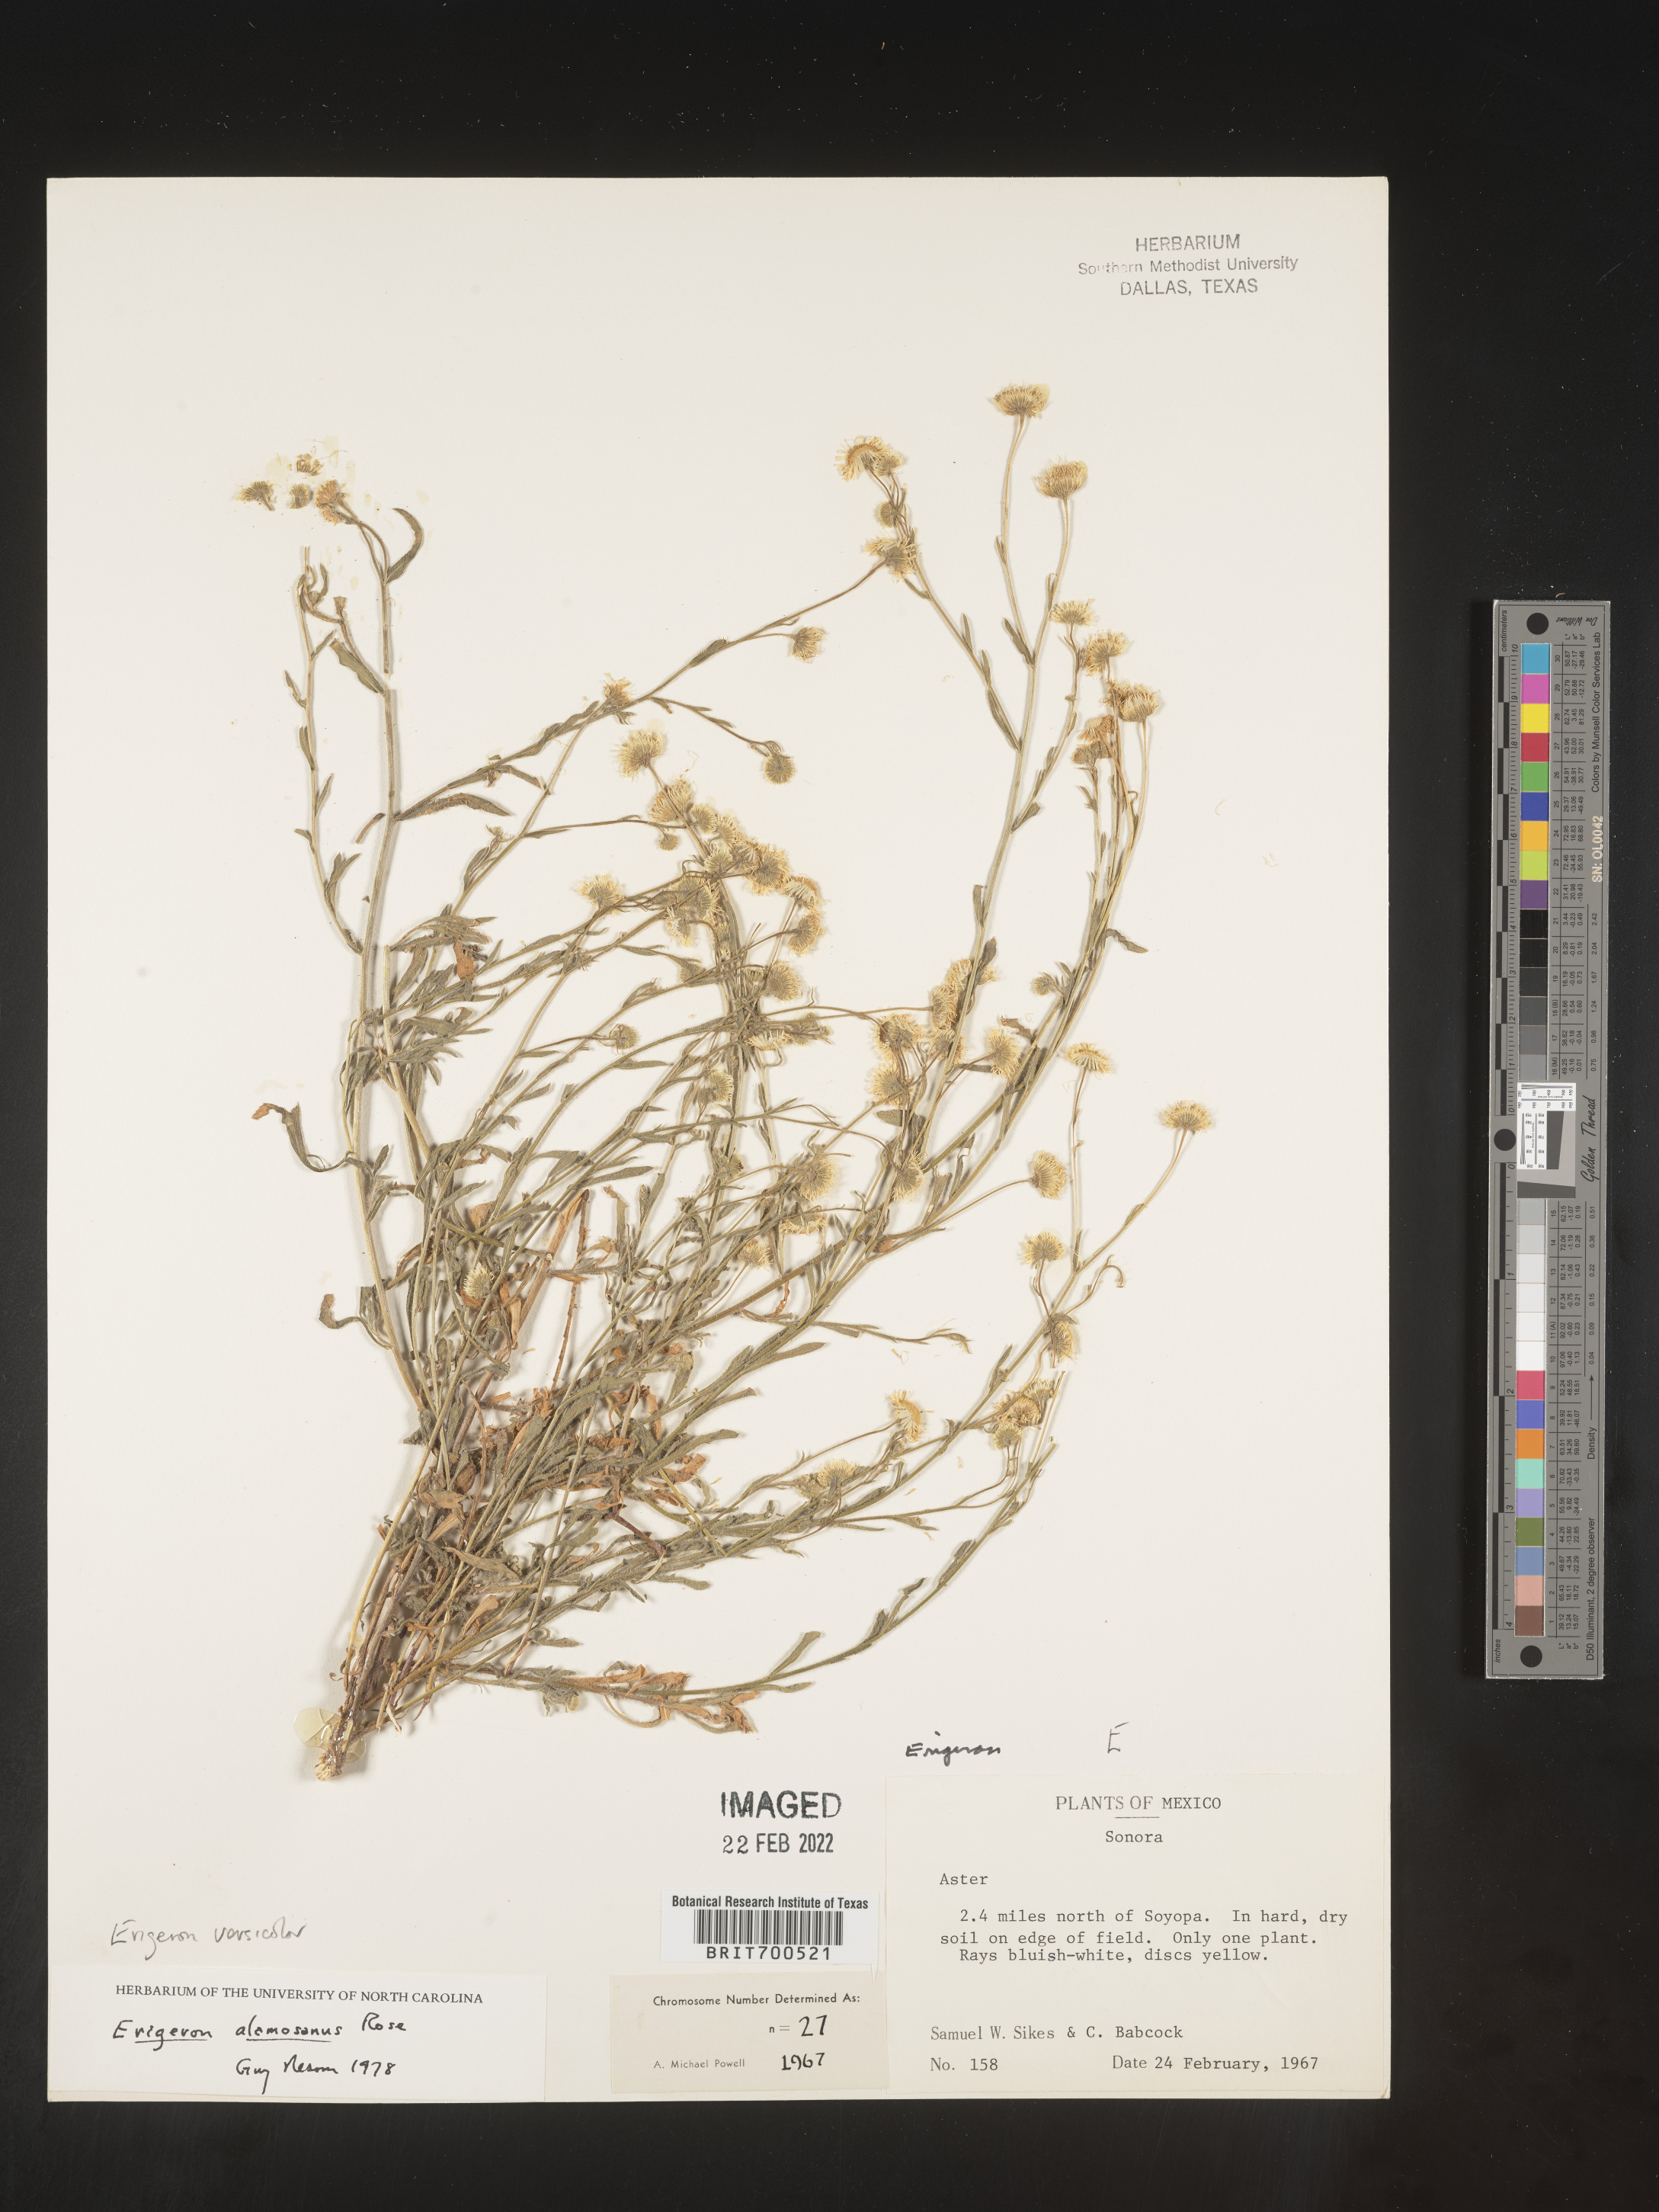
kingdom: Plantae
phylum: Tracheophyta
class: Magnoliopsida
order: Asterales
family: Asteraceae
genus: Erigeron
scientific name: Erigeron versicolor
